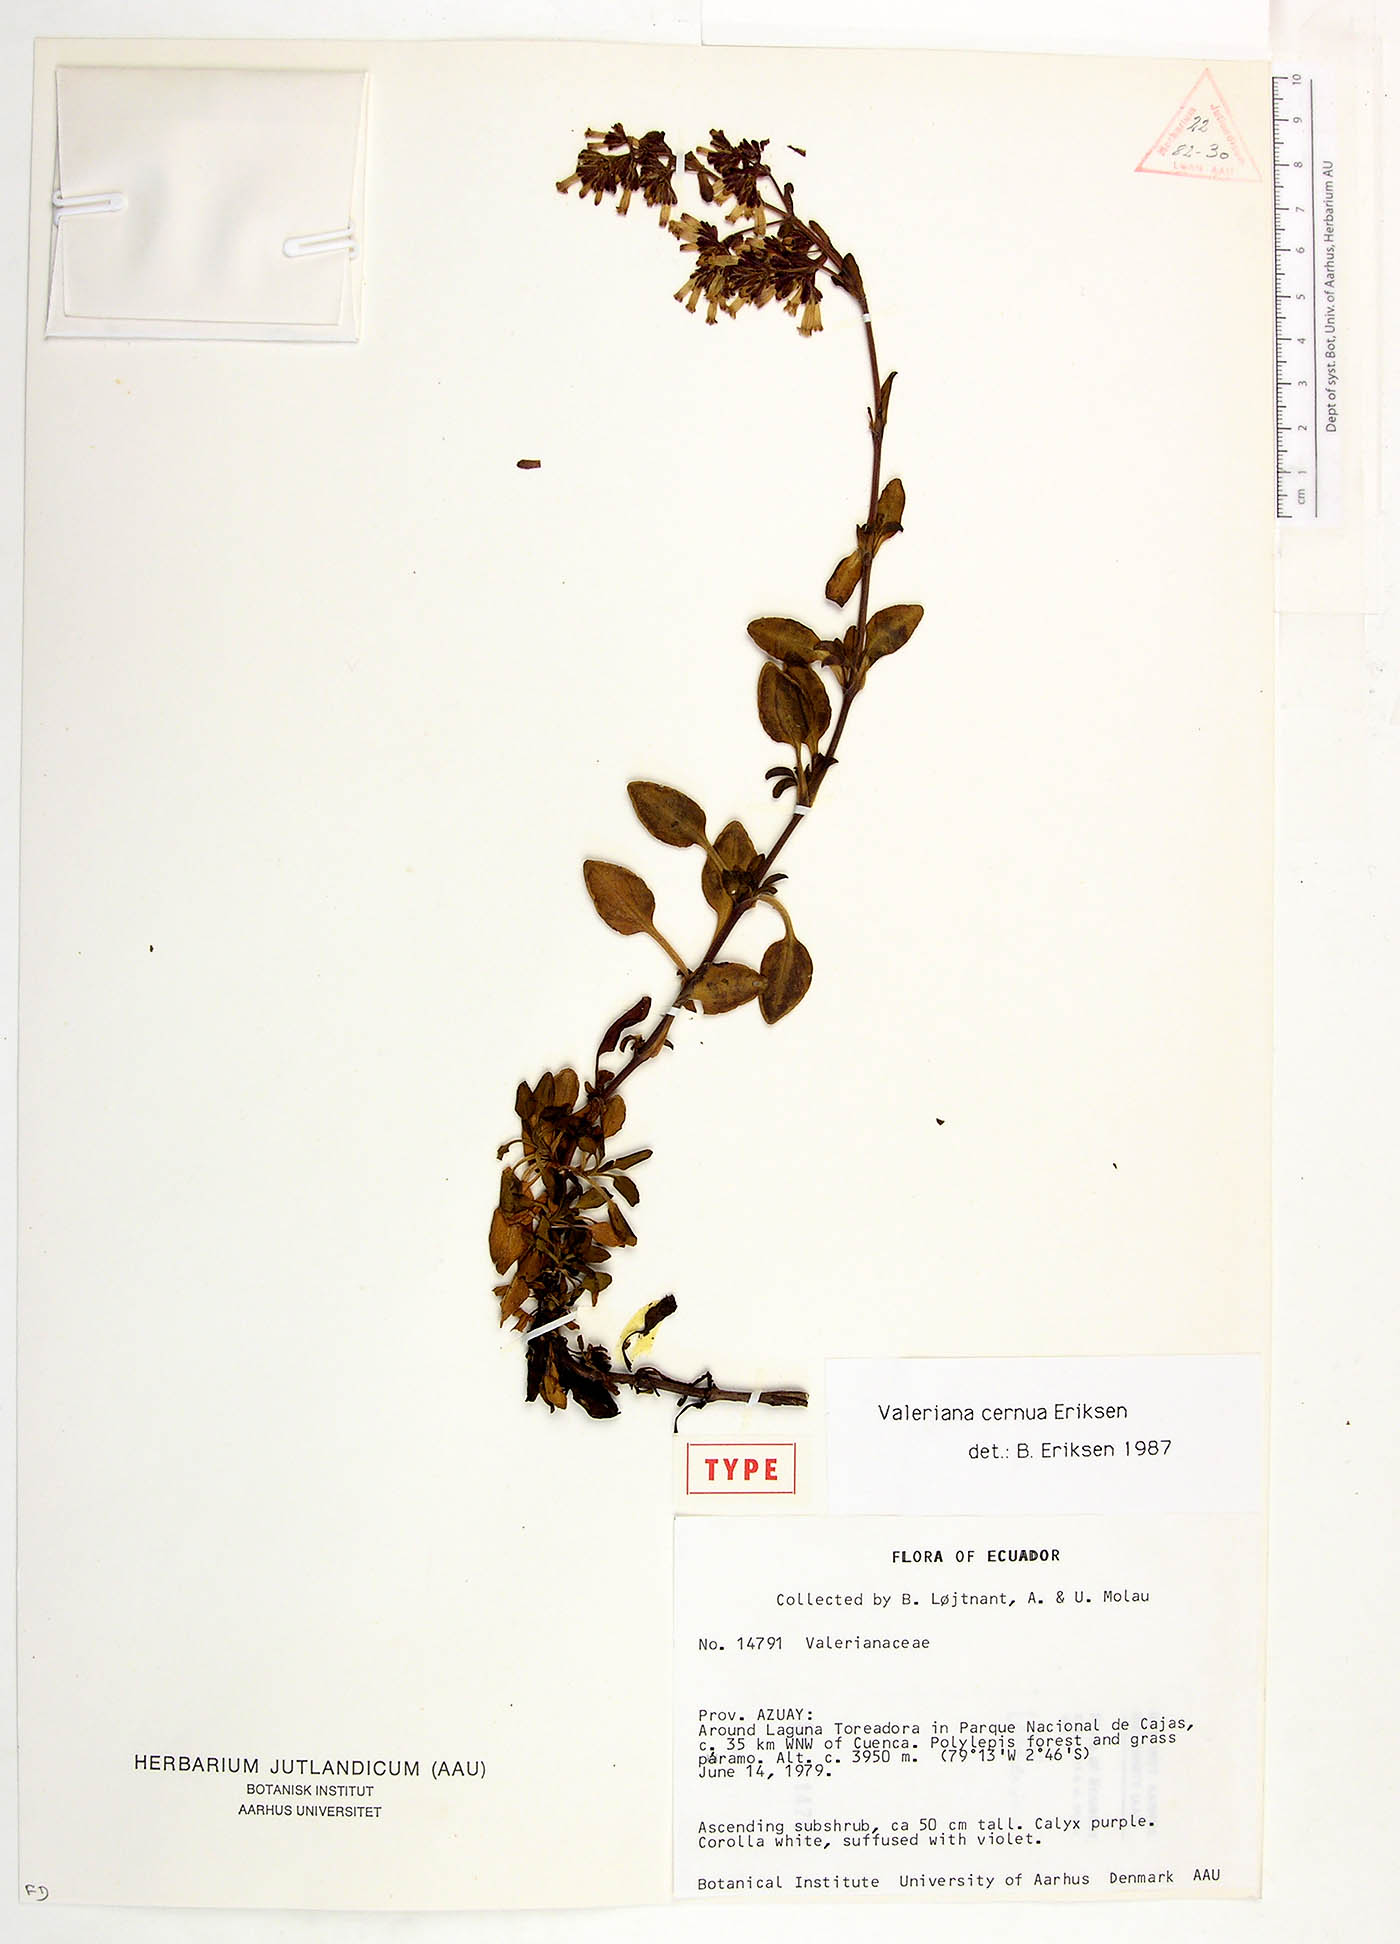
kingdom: Plantae
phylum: Tracheophyta
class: Magnoliopsida
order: Dipsacales
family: Caprifoliaceae
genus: Valeriana
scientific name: Valeriana cernua
